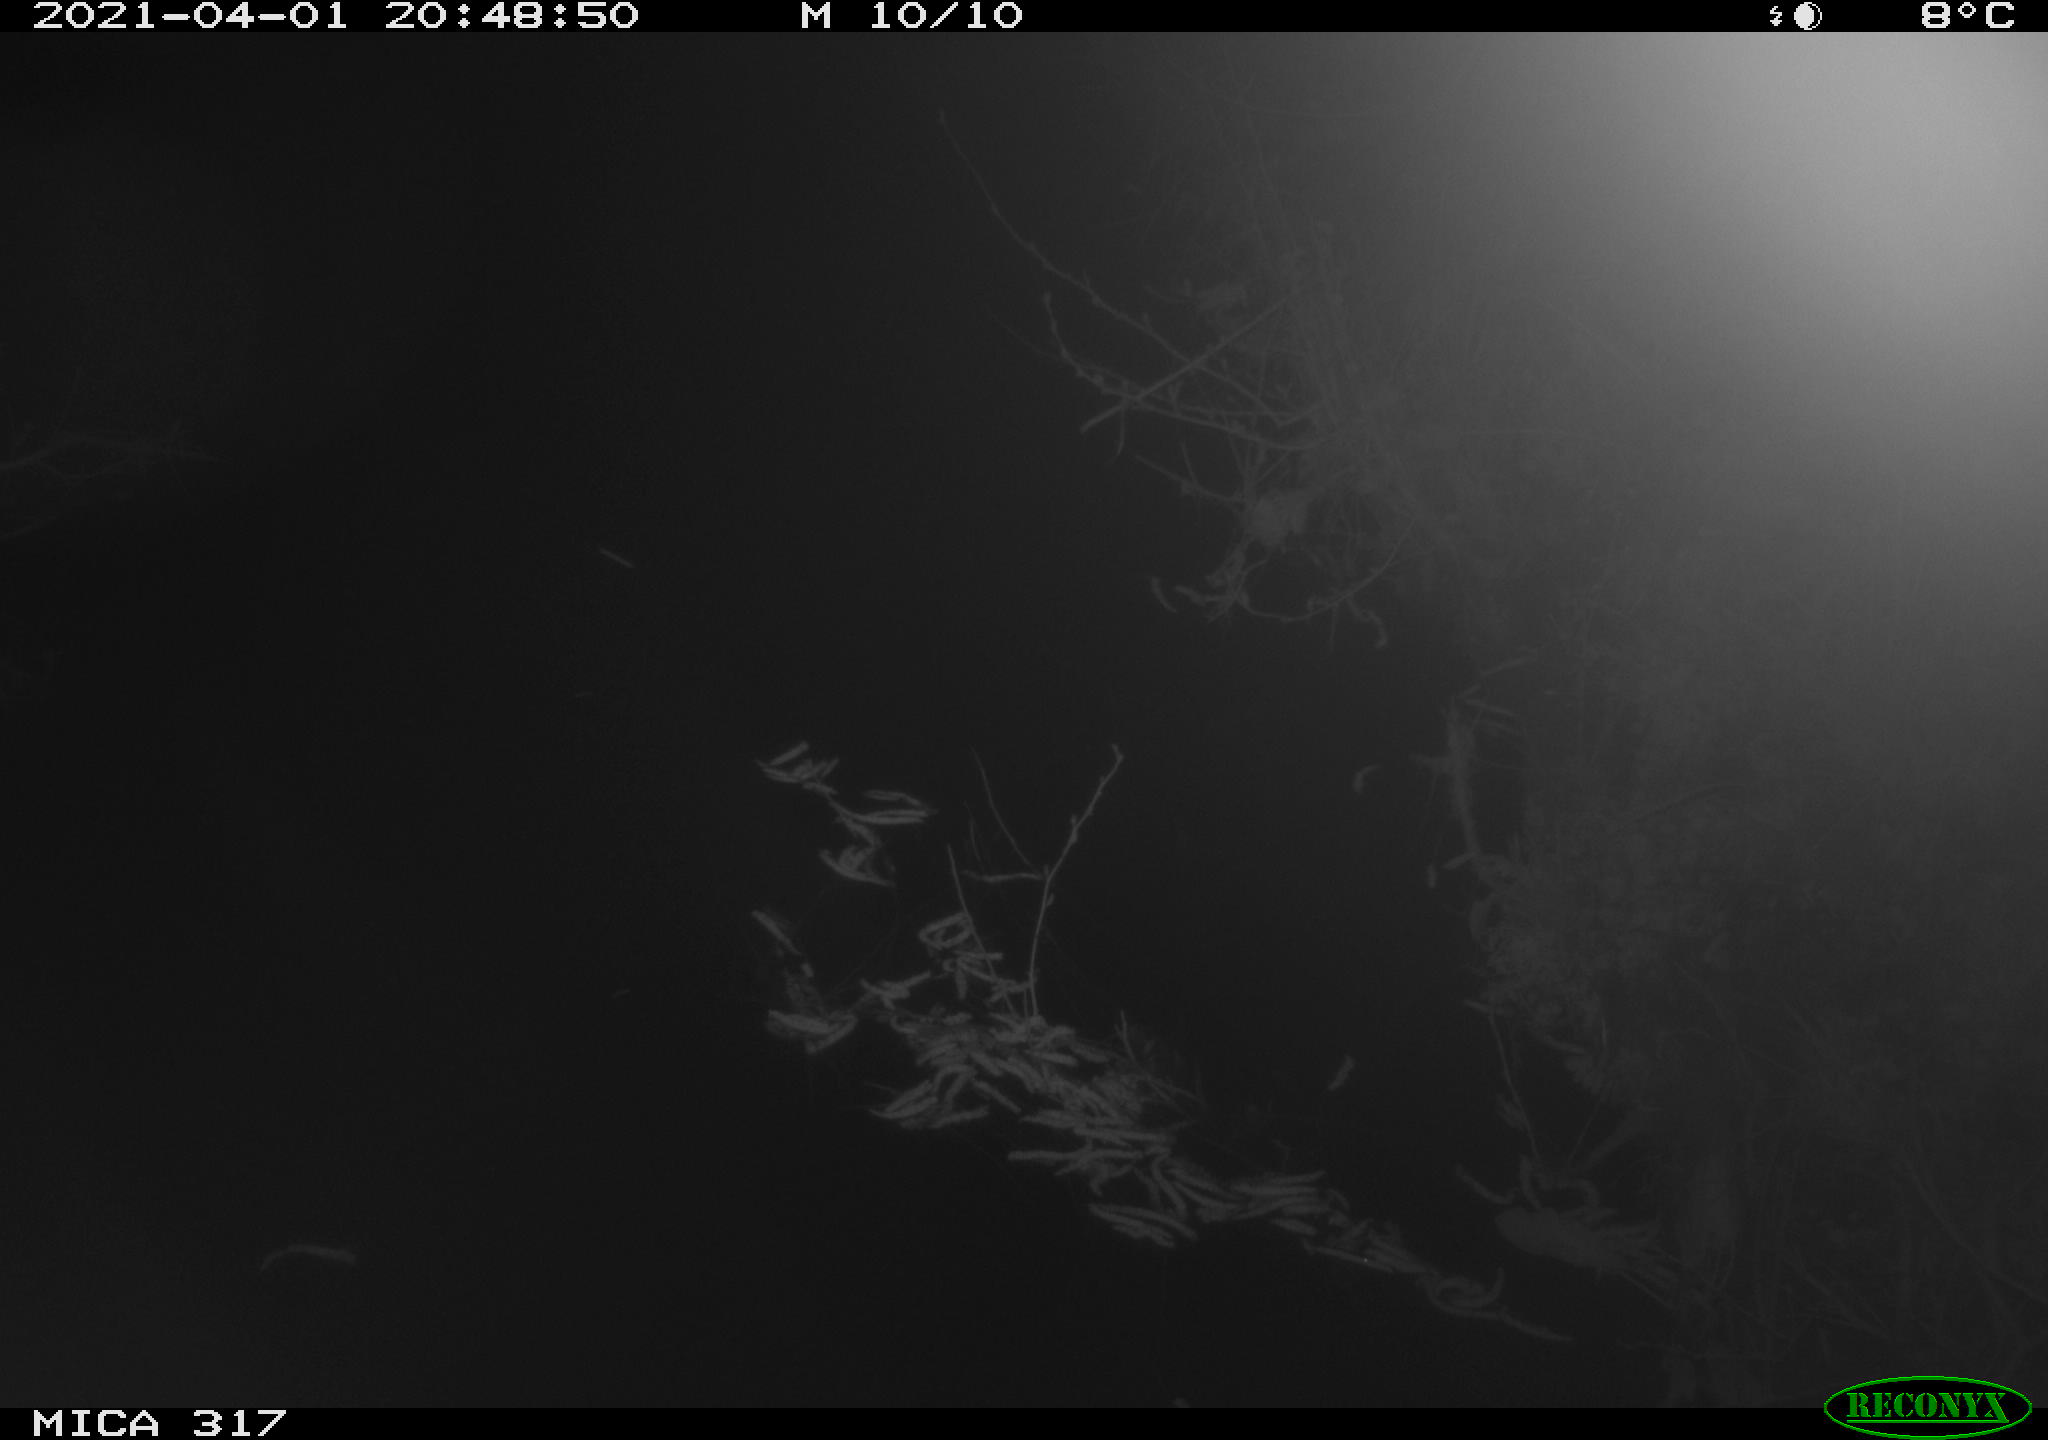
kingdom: Animalia
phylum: Chordata
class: Aves
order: Gruiformes
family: Rallidae
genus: Fulica
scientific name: Fulica atra
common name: Eurasian coot
